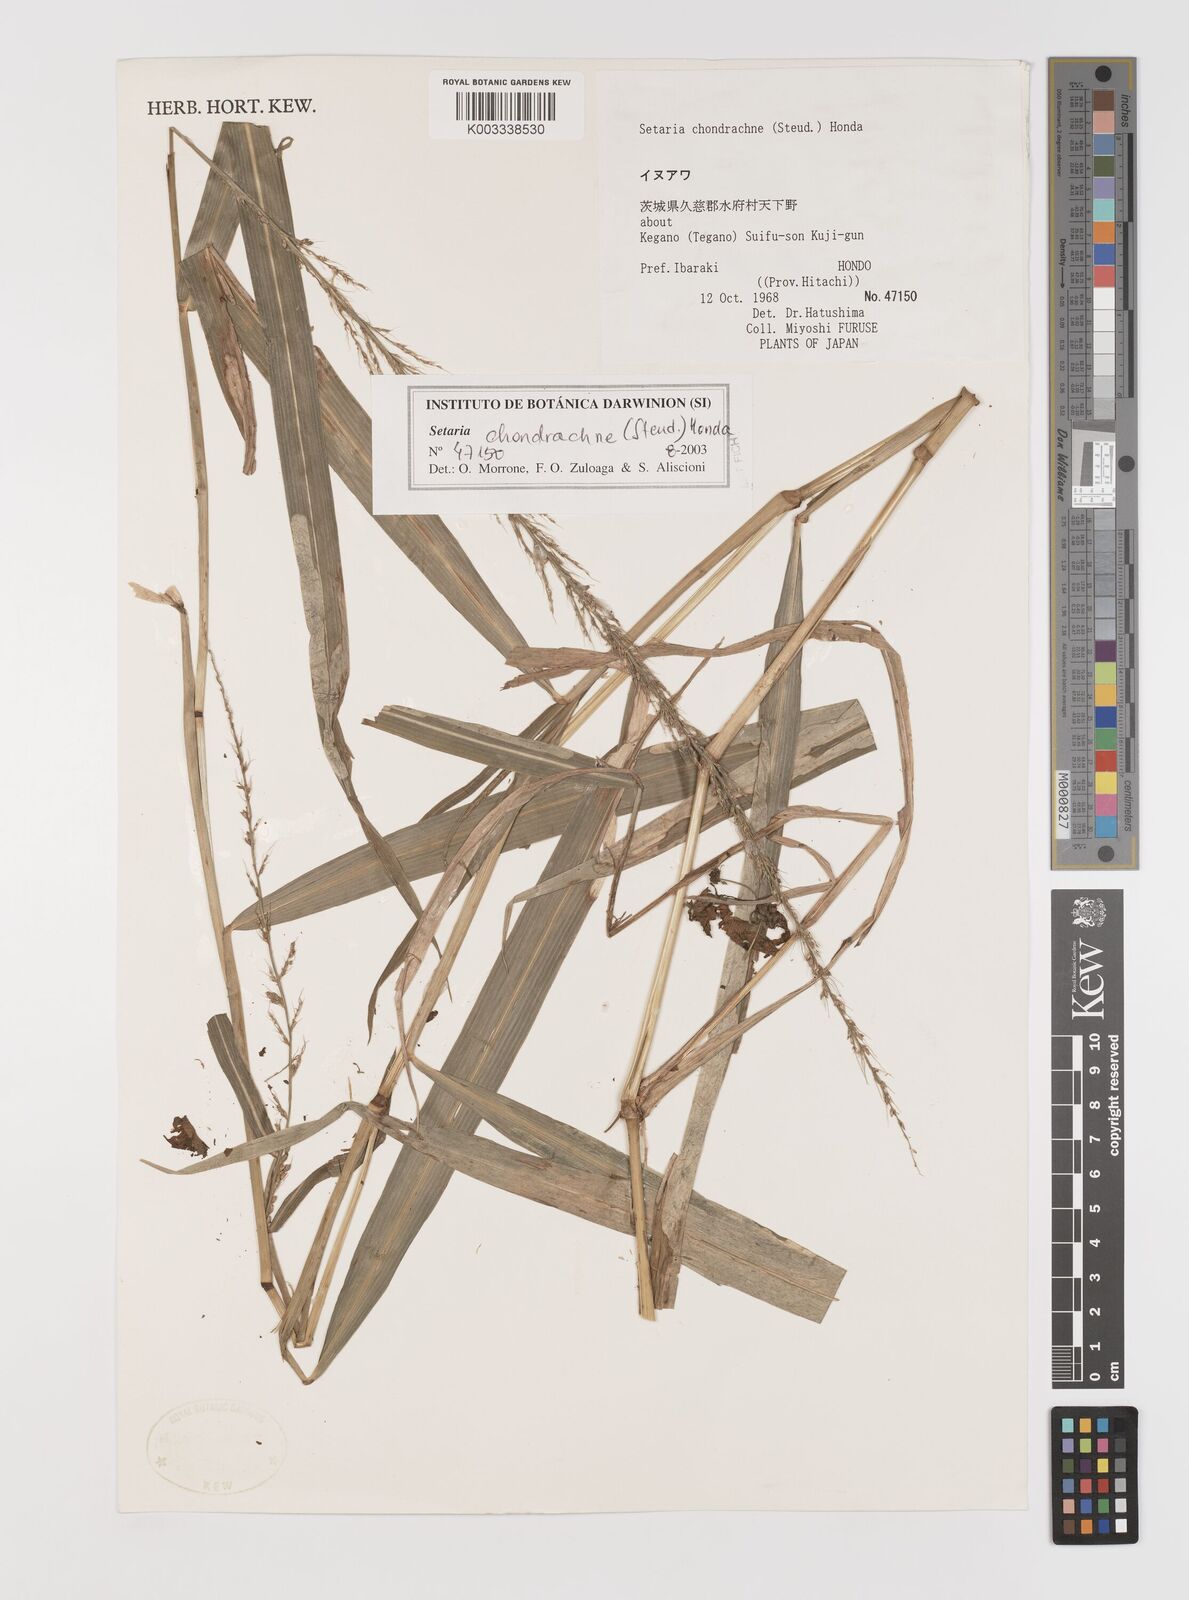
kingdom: Plantae
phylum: Tracheophyta
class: Liliopsida
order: Poales
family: Poaceae
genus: Setaria
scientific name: Setaria chondrachne
